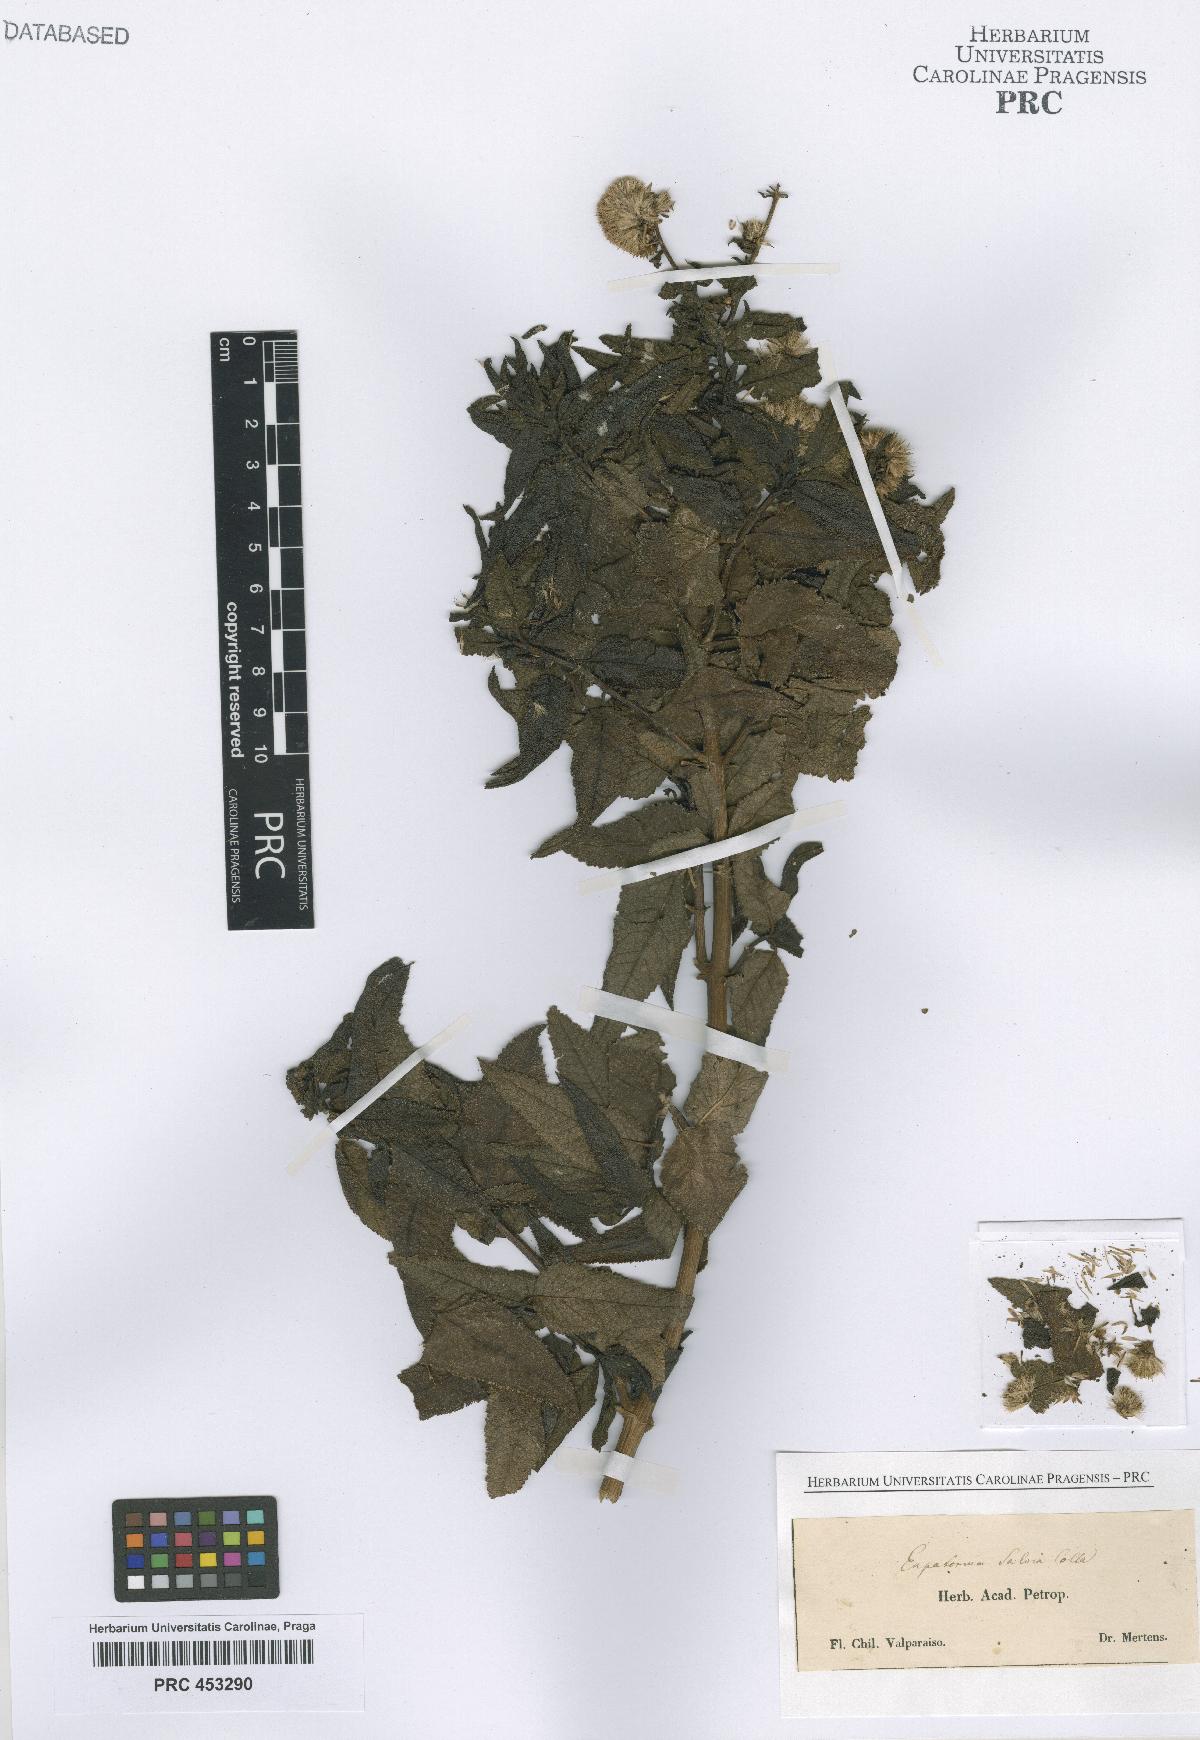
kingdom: Plantae
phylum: Tracheophyta
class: Magnoliopsida
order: Asterales
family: Asteraceae
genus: Eupatorium
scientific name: Eupatorium
